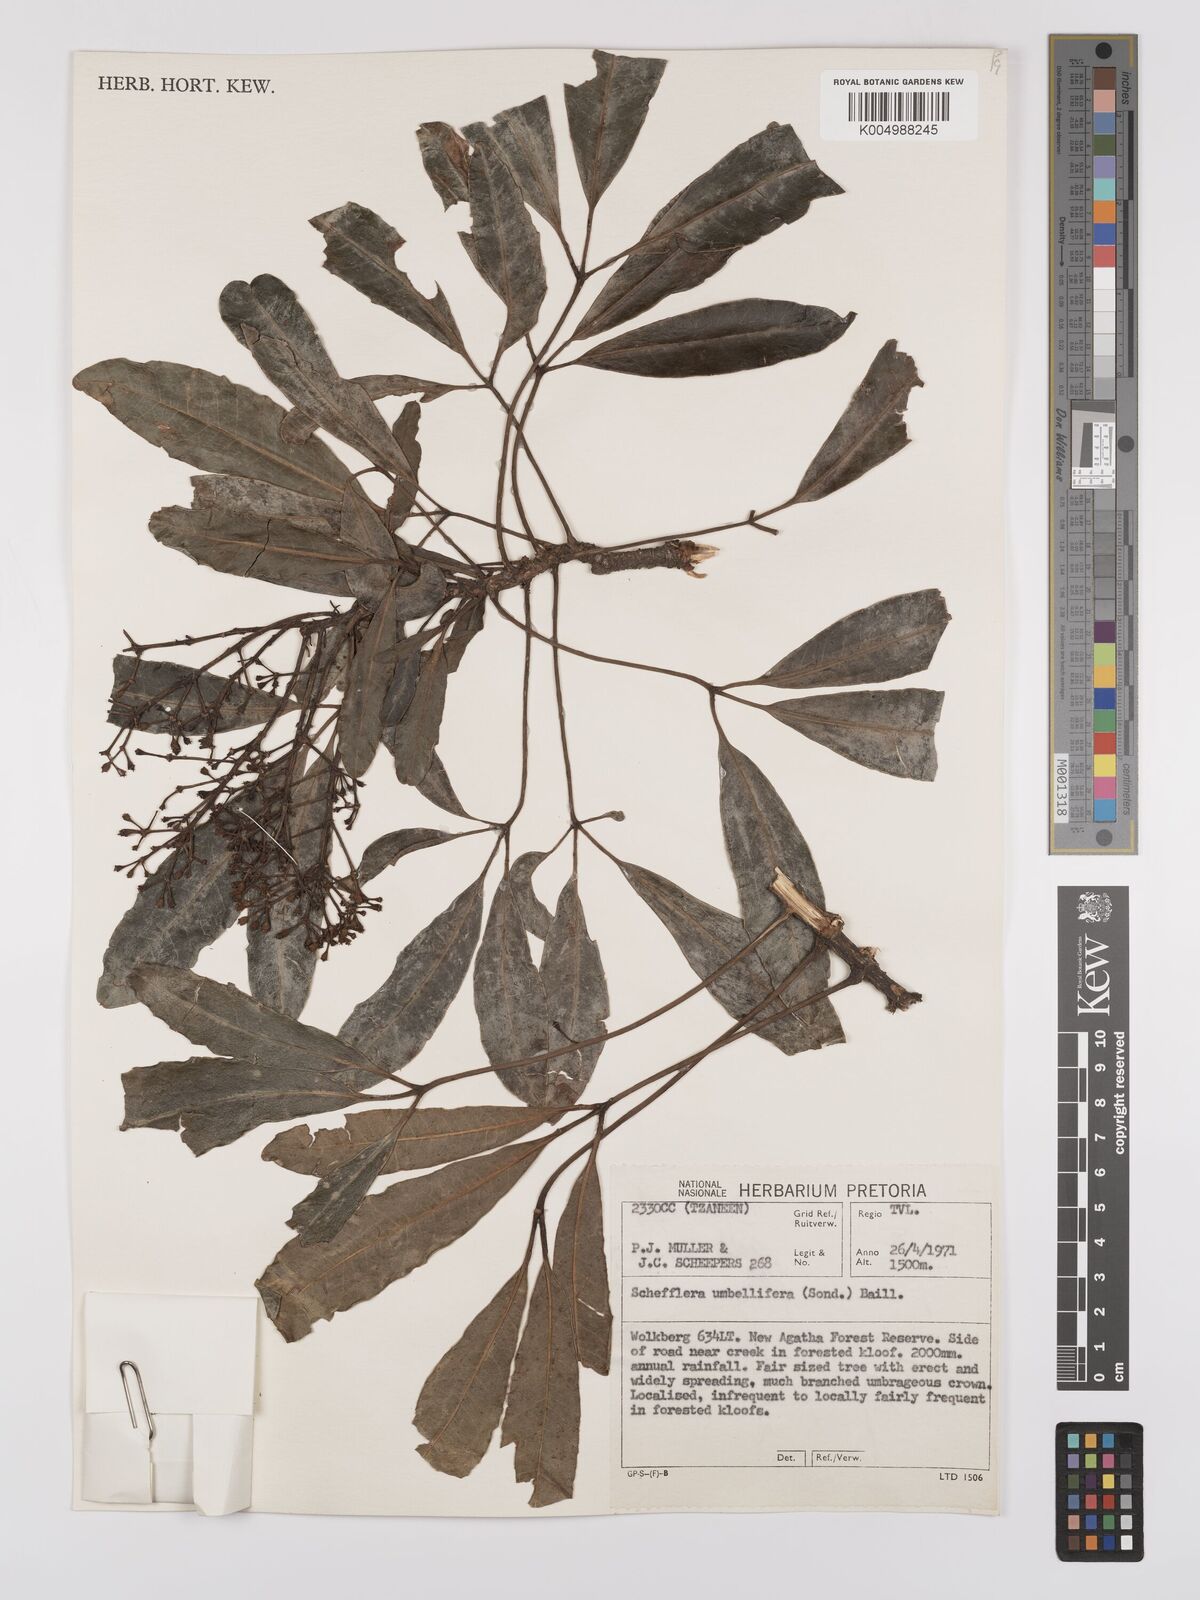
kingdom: Plantae
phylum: Tracheophyta
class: Magnoliopsida
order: Apiales
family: Araliaceae
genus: Neocussonia
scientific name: Neocussonia umbellifera
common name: False cabbage tree
